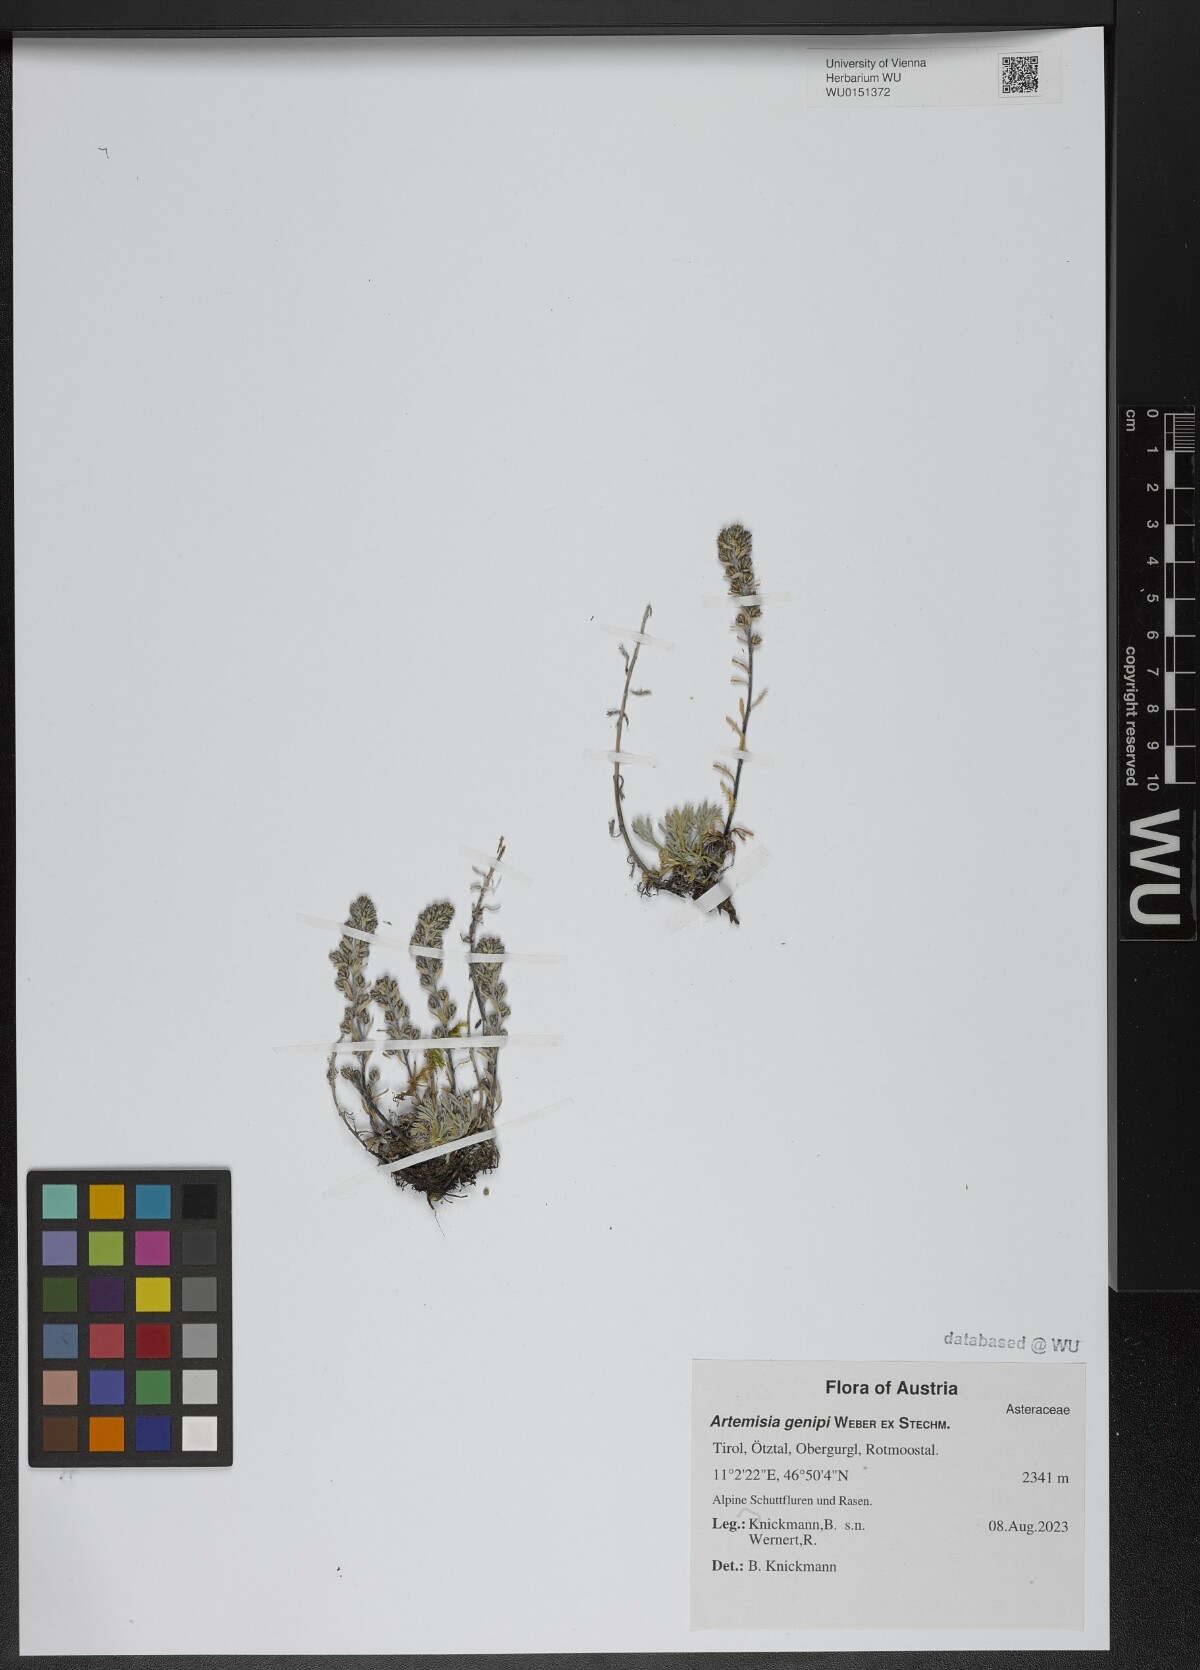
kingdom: Plantae
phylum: Tracheophyta
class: Magnoliopsida
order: Asterales
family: Asteraceae
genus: Artemisia
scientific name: Artemisia genipi
